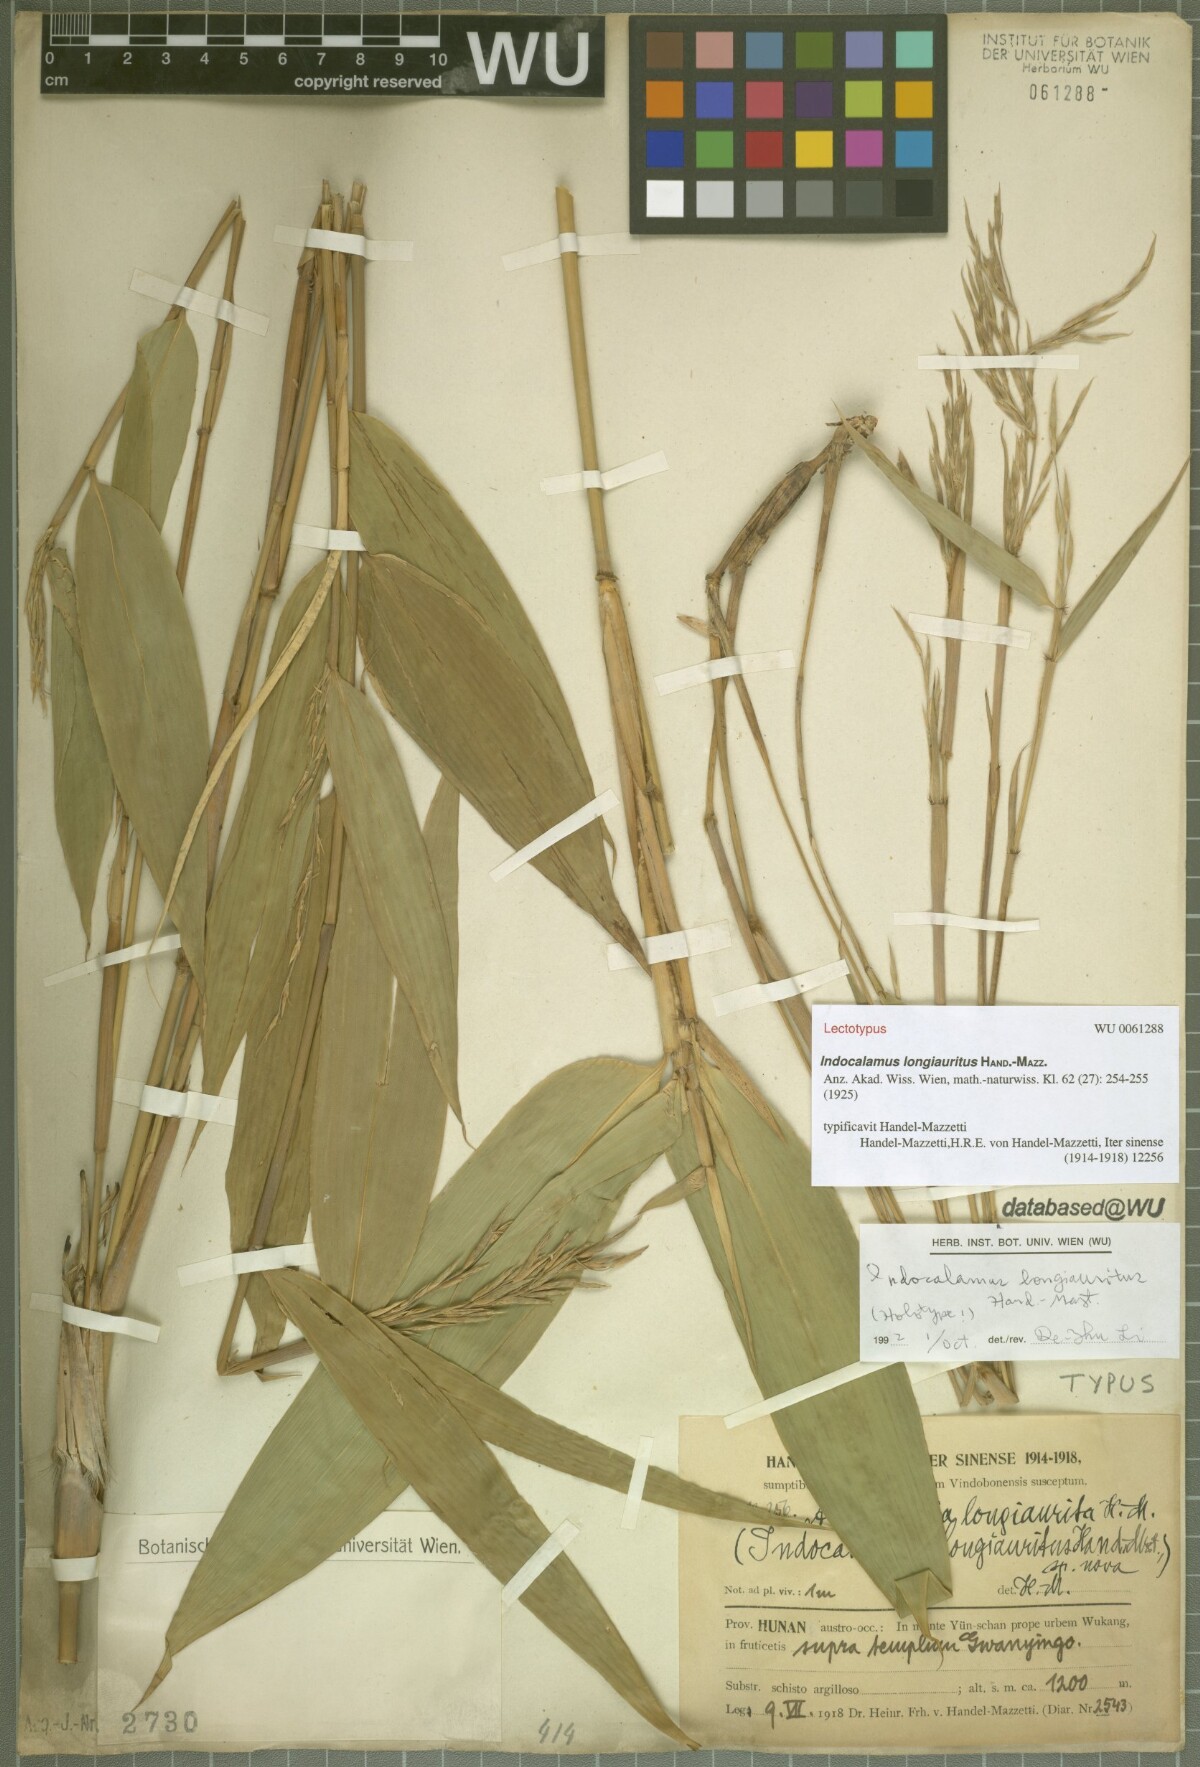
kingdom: Plantae
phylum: Tracheophyta
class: Liliopsida
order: Poales
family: Poaceae
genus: Indocalamus
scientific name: Indocalamus longiauritus
